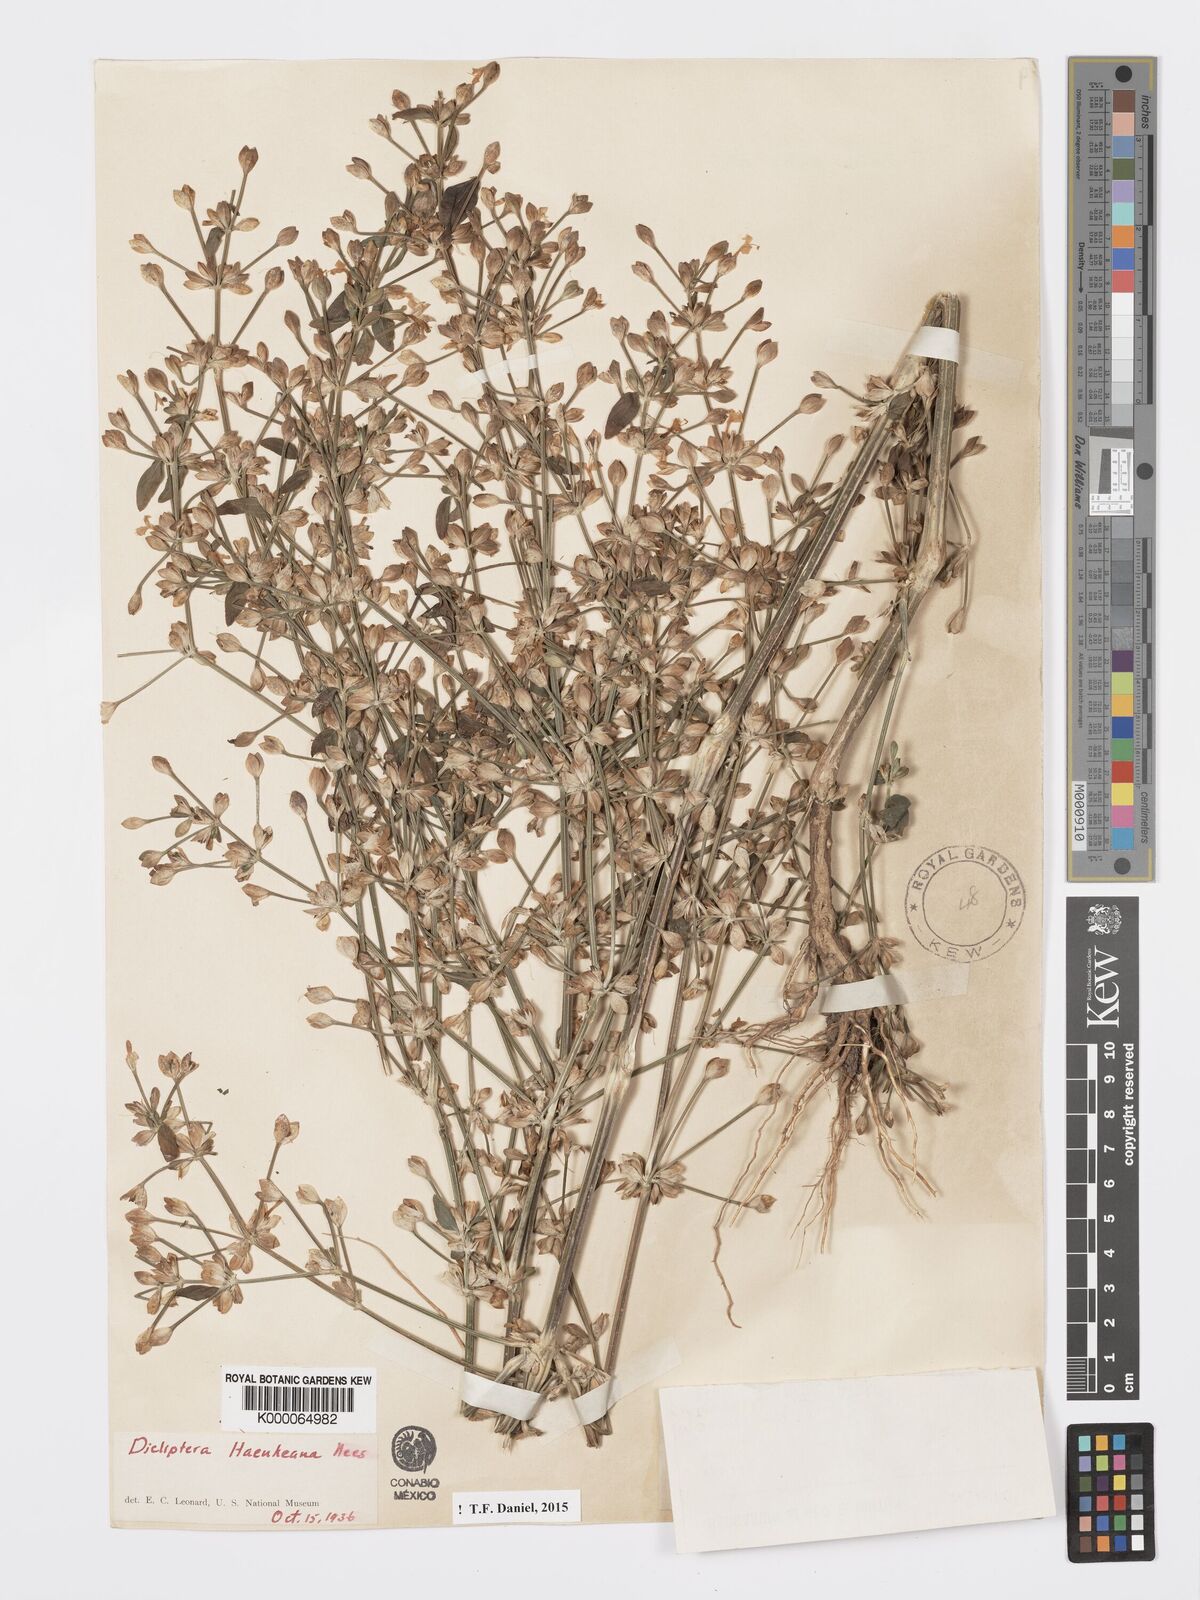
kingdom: Plantae
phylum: Tracheophyta
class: Magnoliopsida
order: Lamiales
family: Acanthaceae
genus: Dicliptera
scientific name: Dicliptera haenkeana
